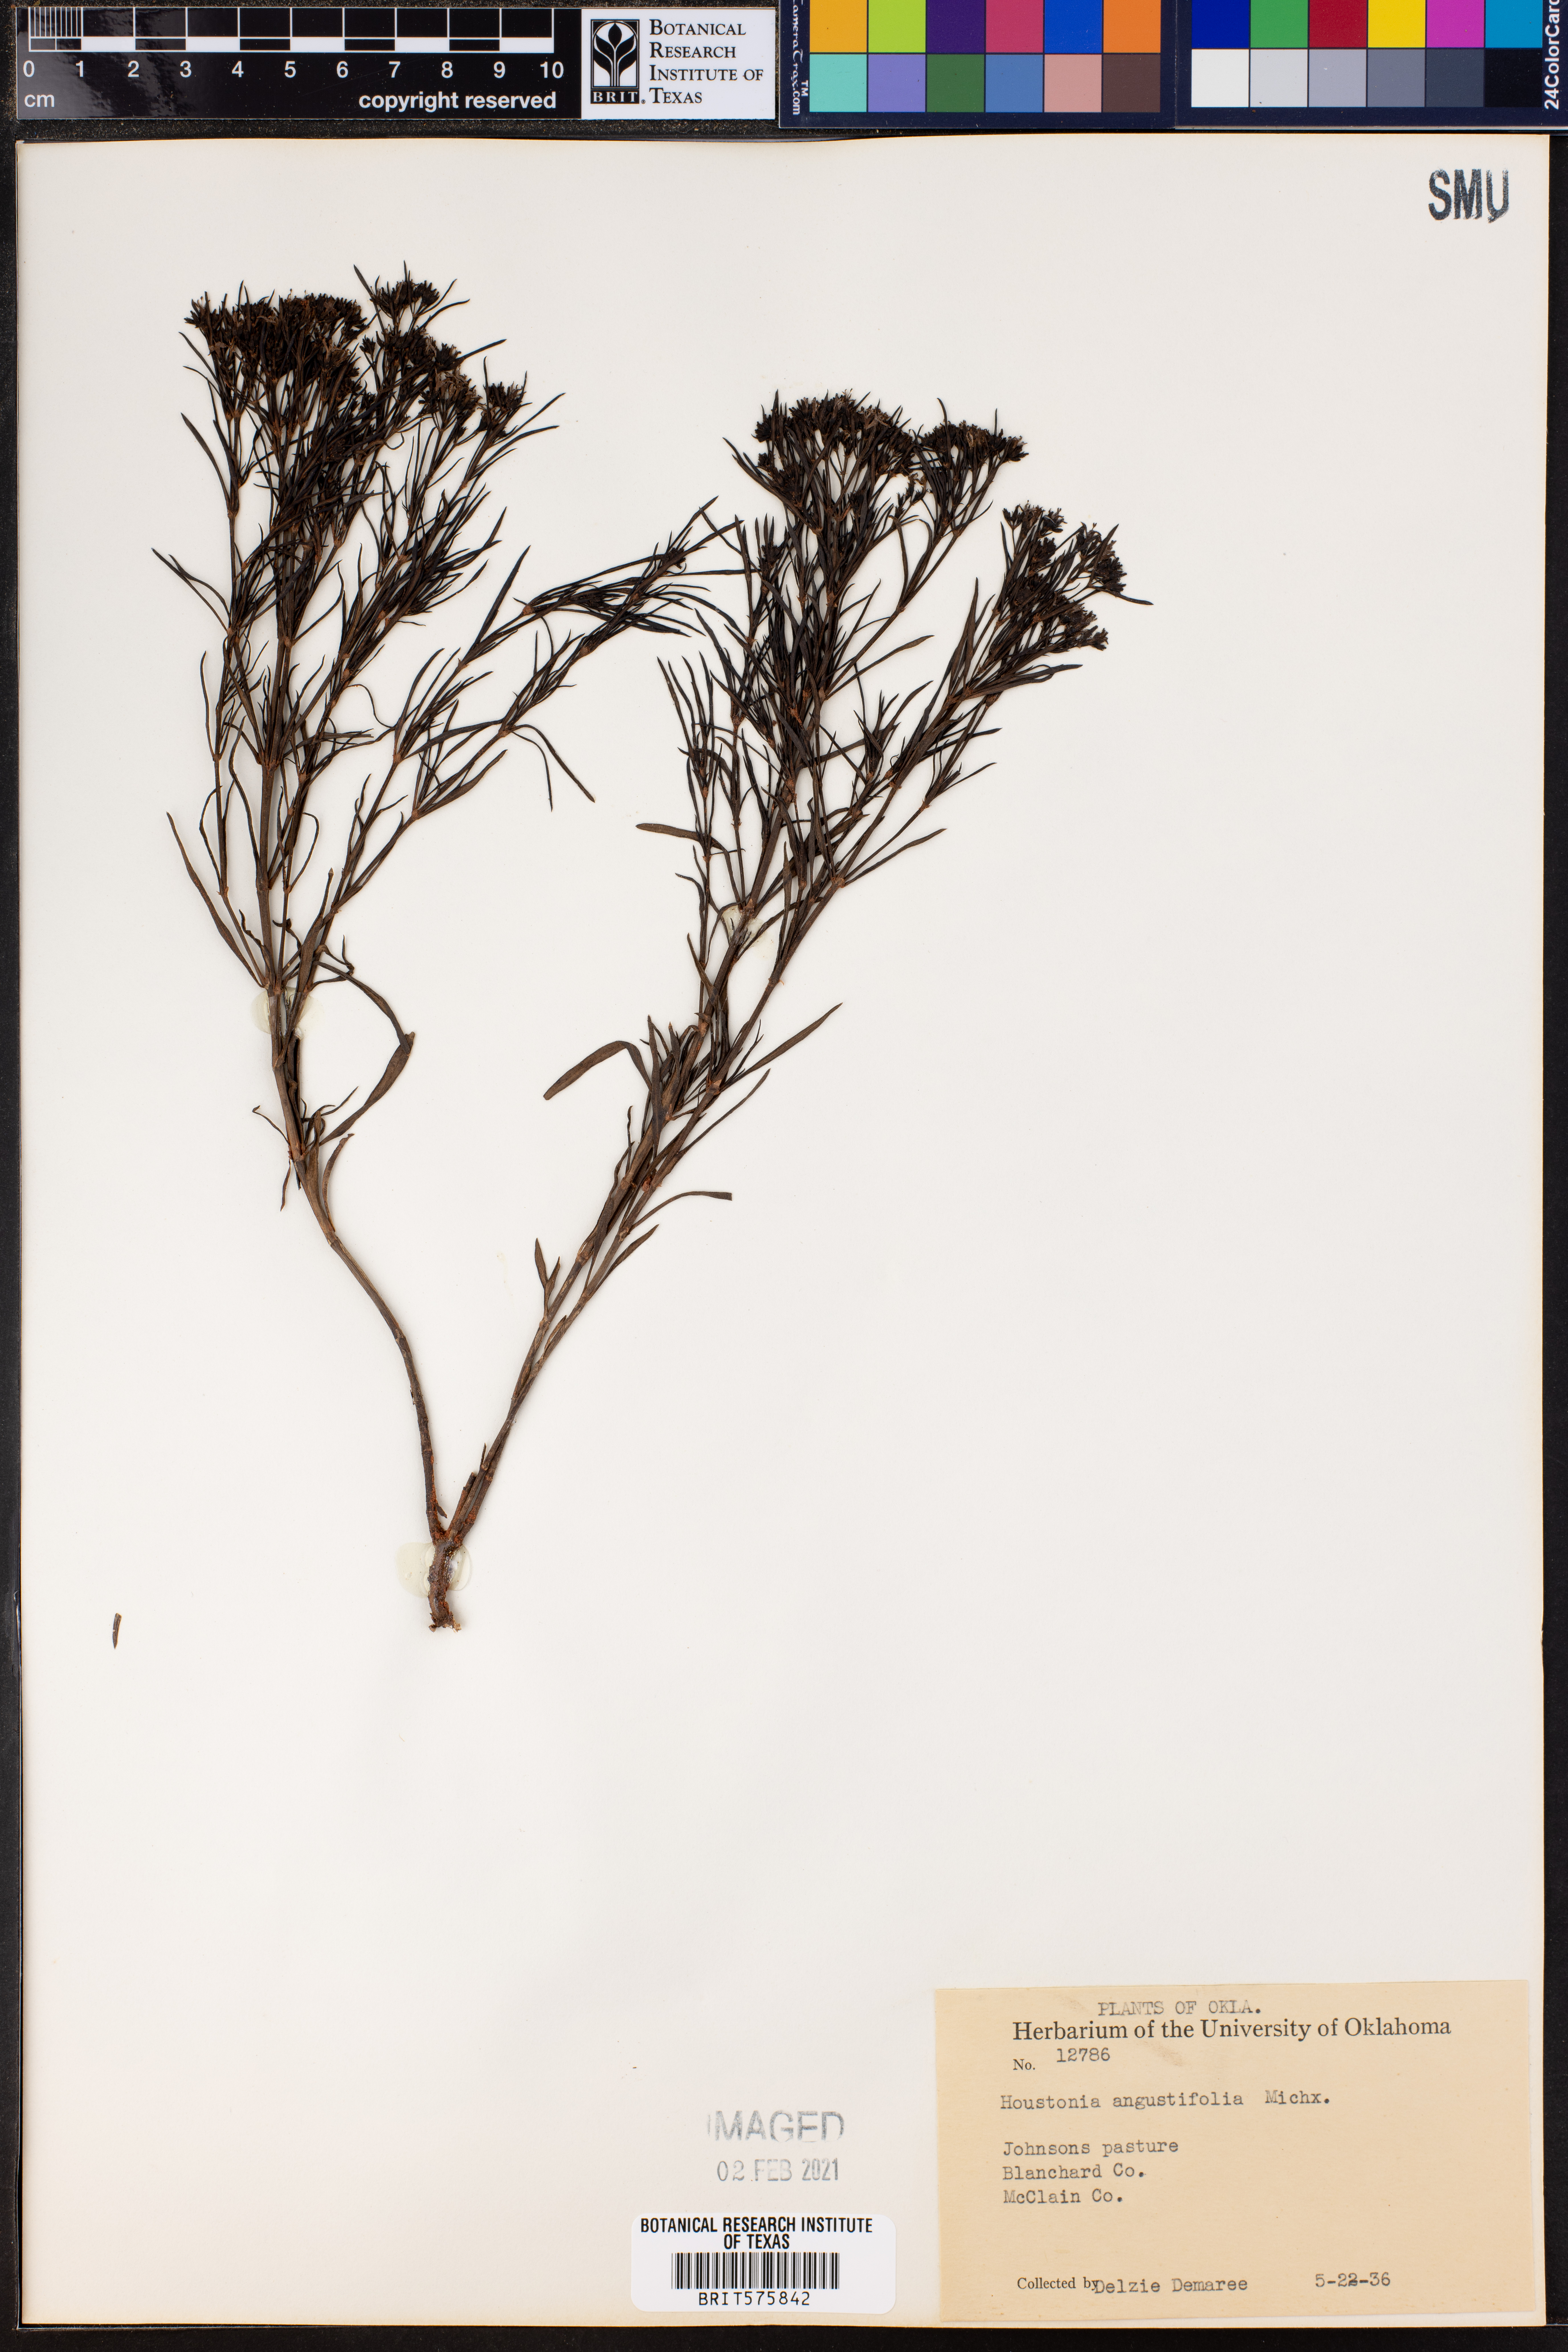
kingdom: Plantae
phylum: Tracheophyta
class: Magnoliopsida
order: Gentianales
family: Rubiaceae
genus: Stenaria
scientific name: Stenaria nigricans
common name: Diamondflowers
